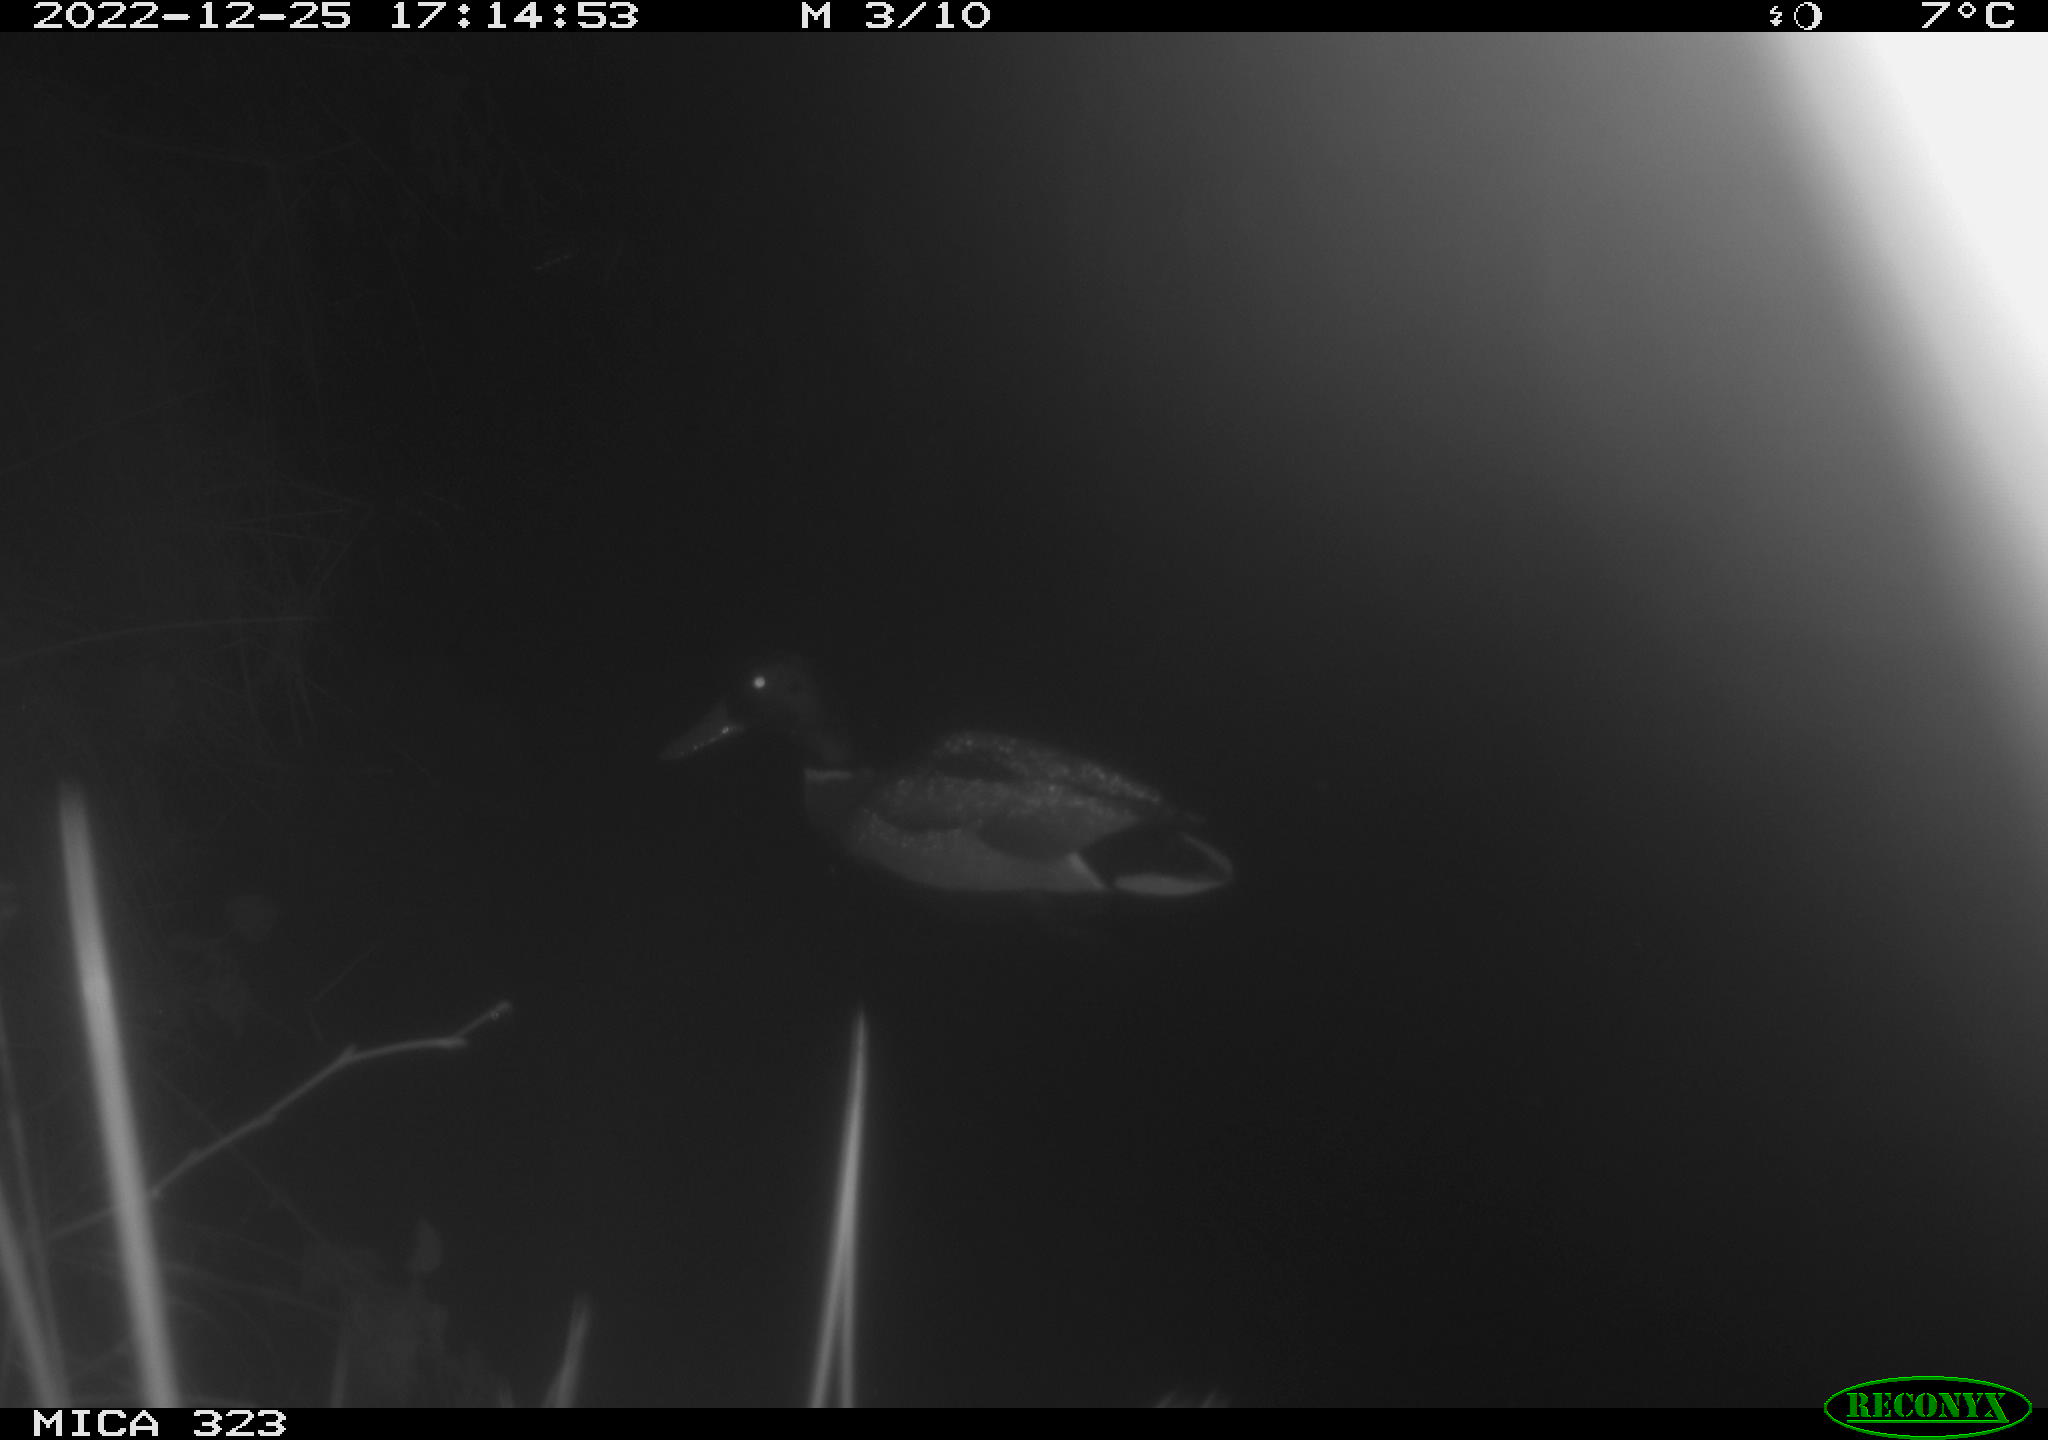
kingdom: Animalia
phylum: Chordata
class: Aves
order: Anseriformes
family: Anatidae
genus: Anas
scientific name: Anas
